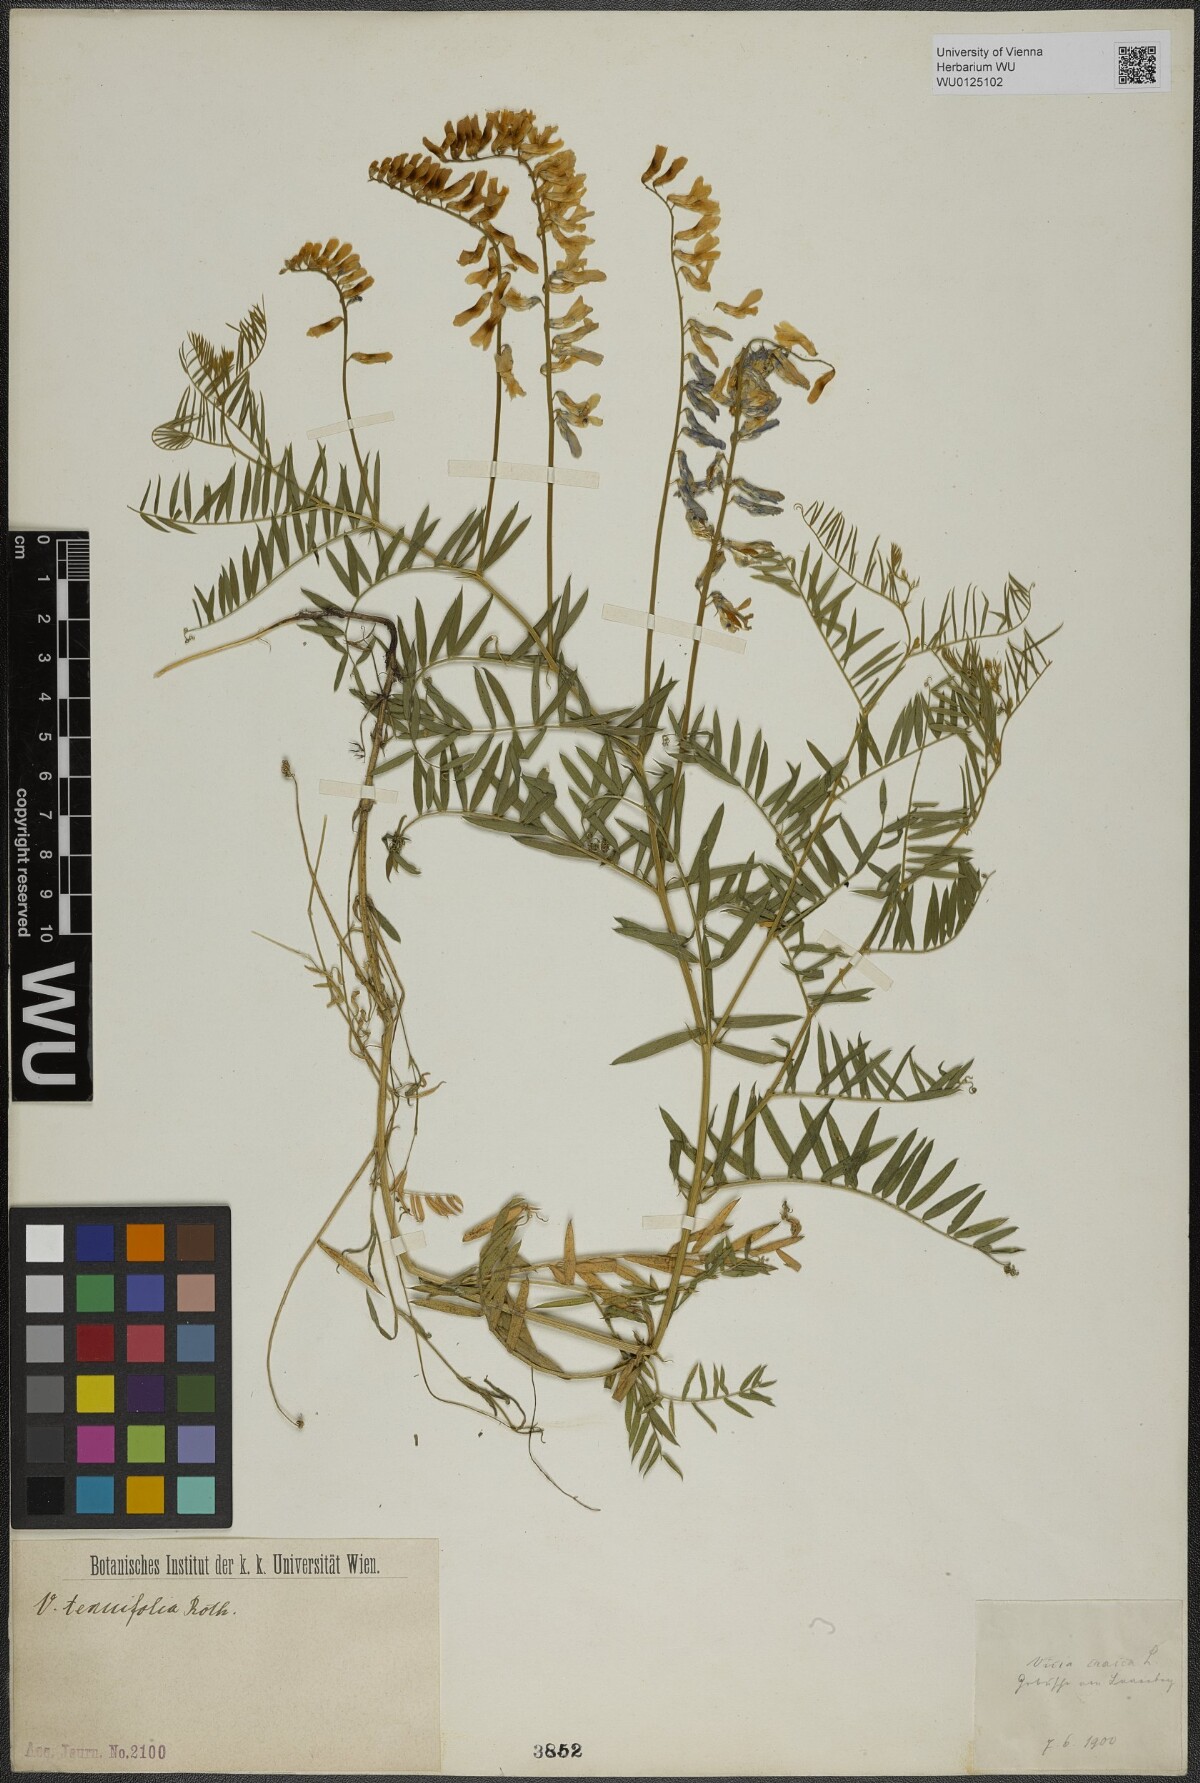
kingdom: Plantae
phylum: Tracheophyta
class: Magnoliopsida
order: Fabales
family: Fabaceae
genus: Vicia
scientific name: Vicia cracca
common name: Bird vetch
